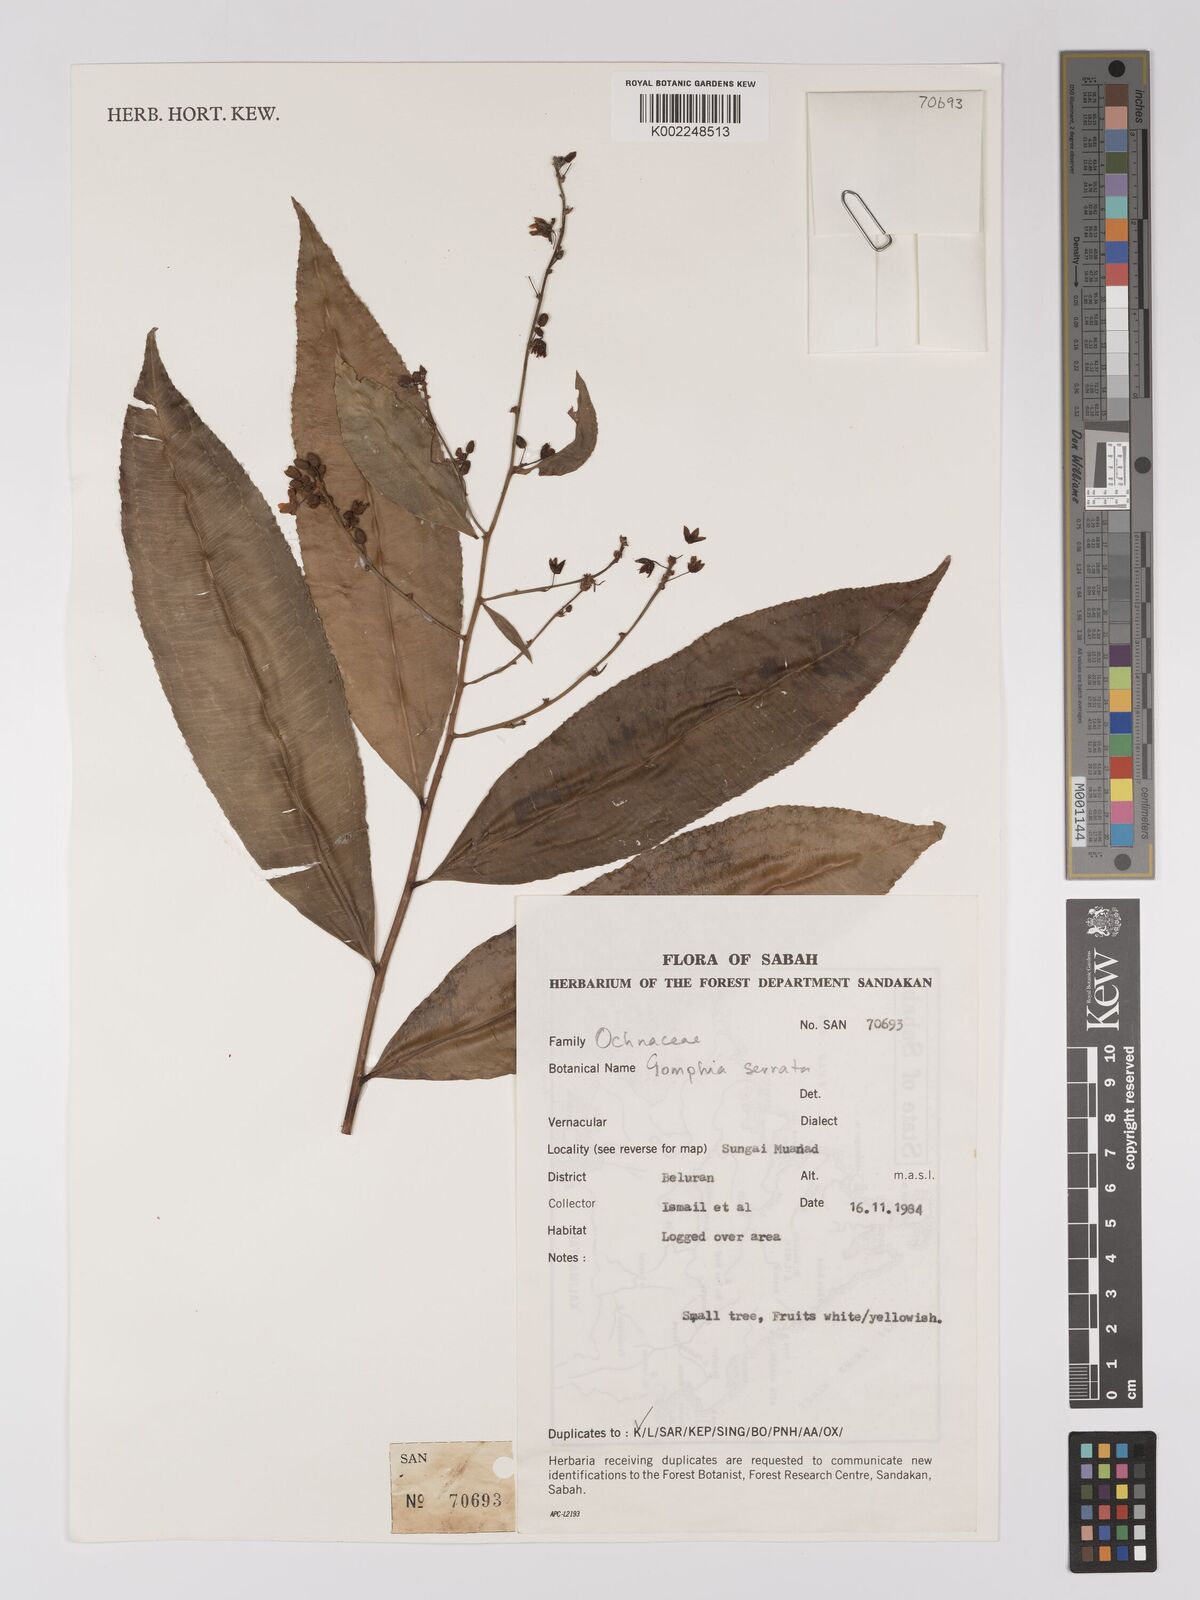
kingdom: Plantae
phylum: Tracheophyta
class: Magnoliopsida
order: Malpighiales
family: Ochnaceae
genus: Gomphia
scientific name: Gomphia serrata
